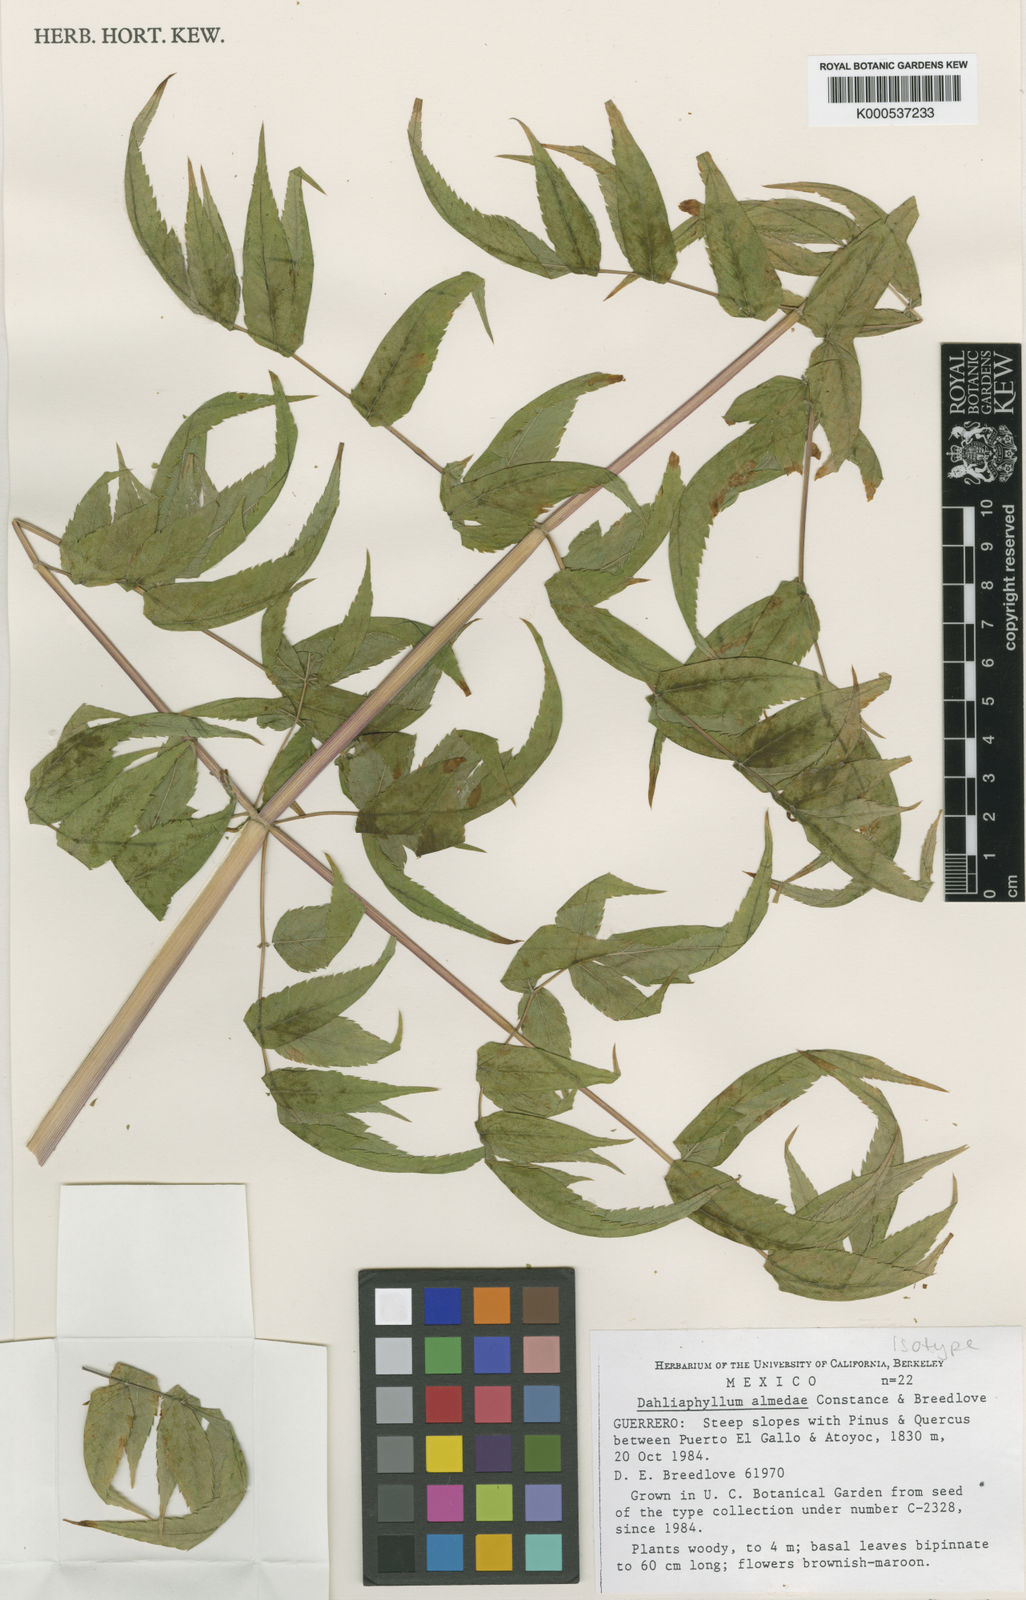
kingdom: Plantae
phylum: Tracheophyta
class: Magnoliopsida
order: Apiales
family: Apiaceae
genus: Dahliaphyllum
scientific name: Dahliaphyllum almedae
